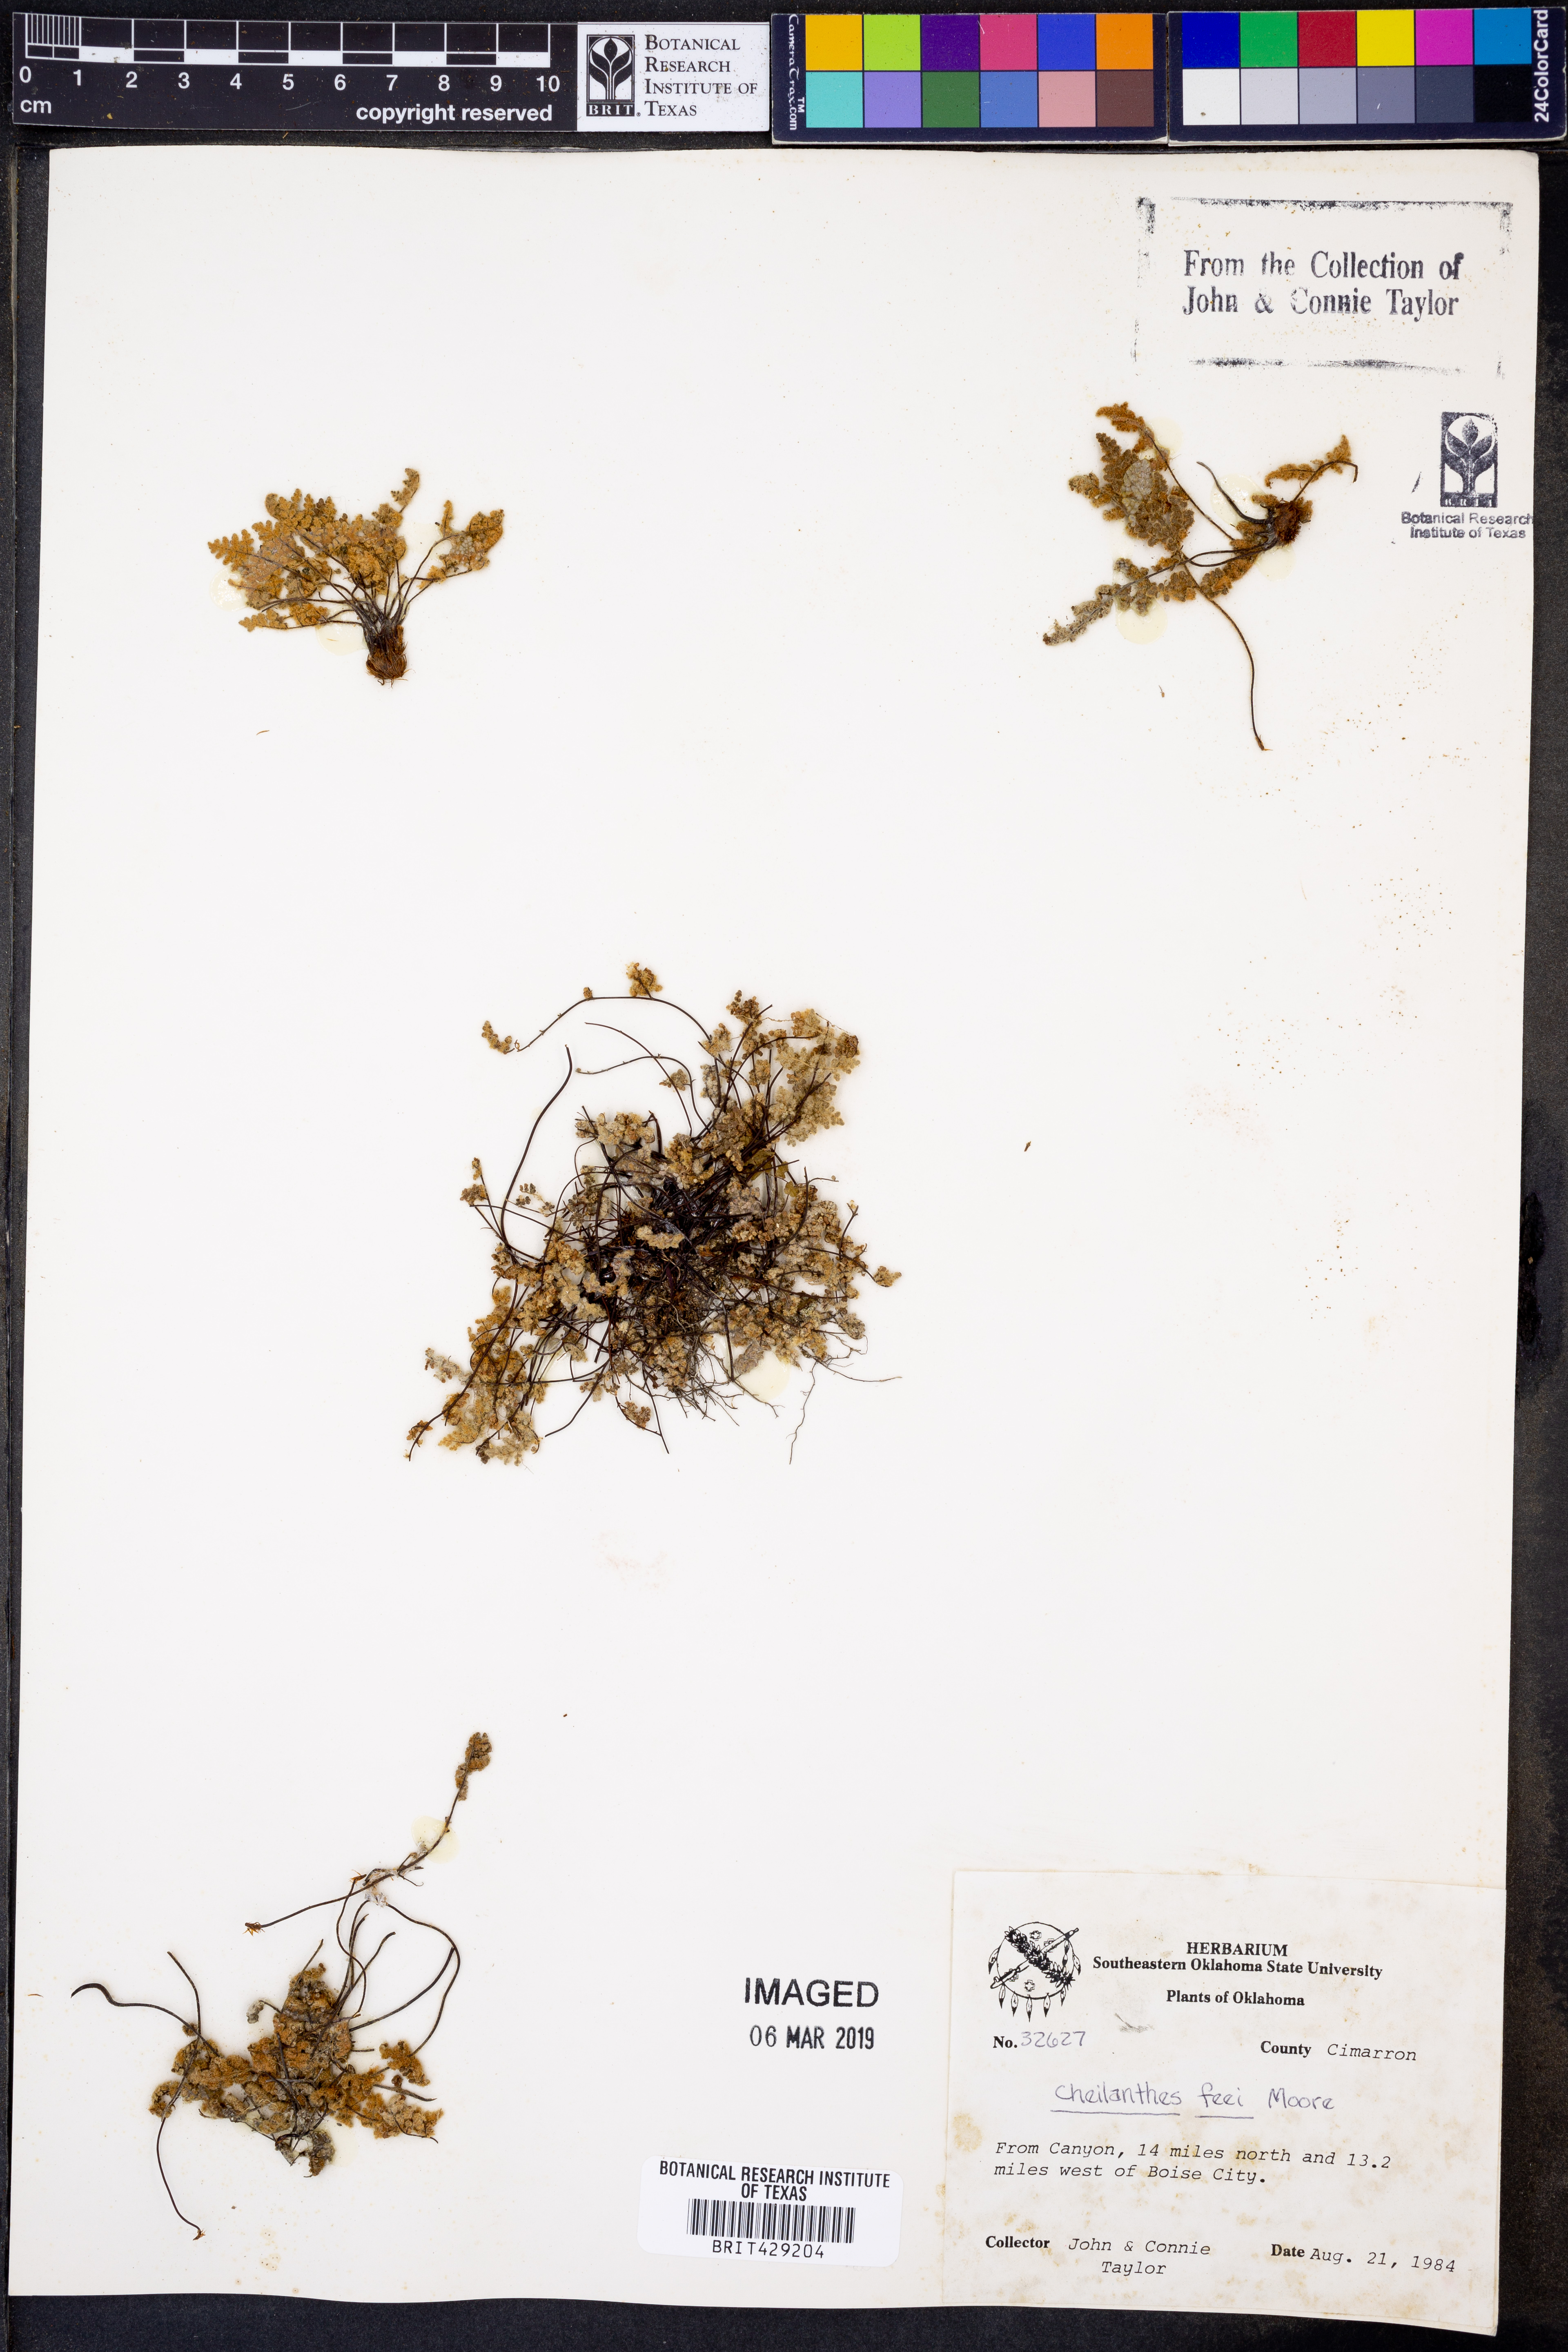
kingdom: Plantae
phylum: Tracheophyta
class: Polypodiopsida
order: Polypodiales
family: Pteridaceae
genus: Myriopteris
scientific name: Myriopteris gracilis
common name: Fee's lip fern
